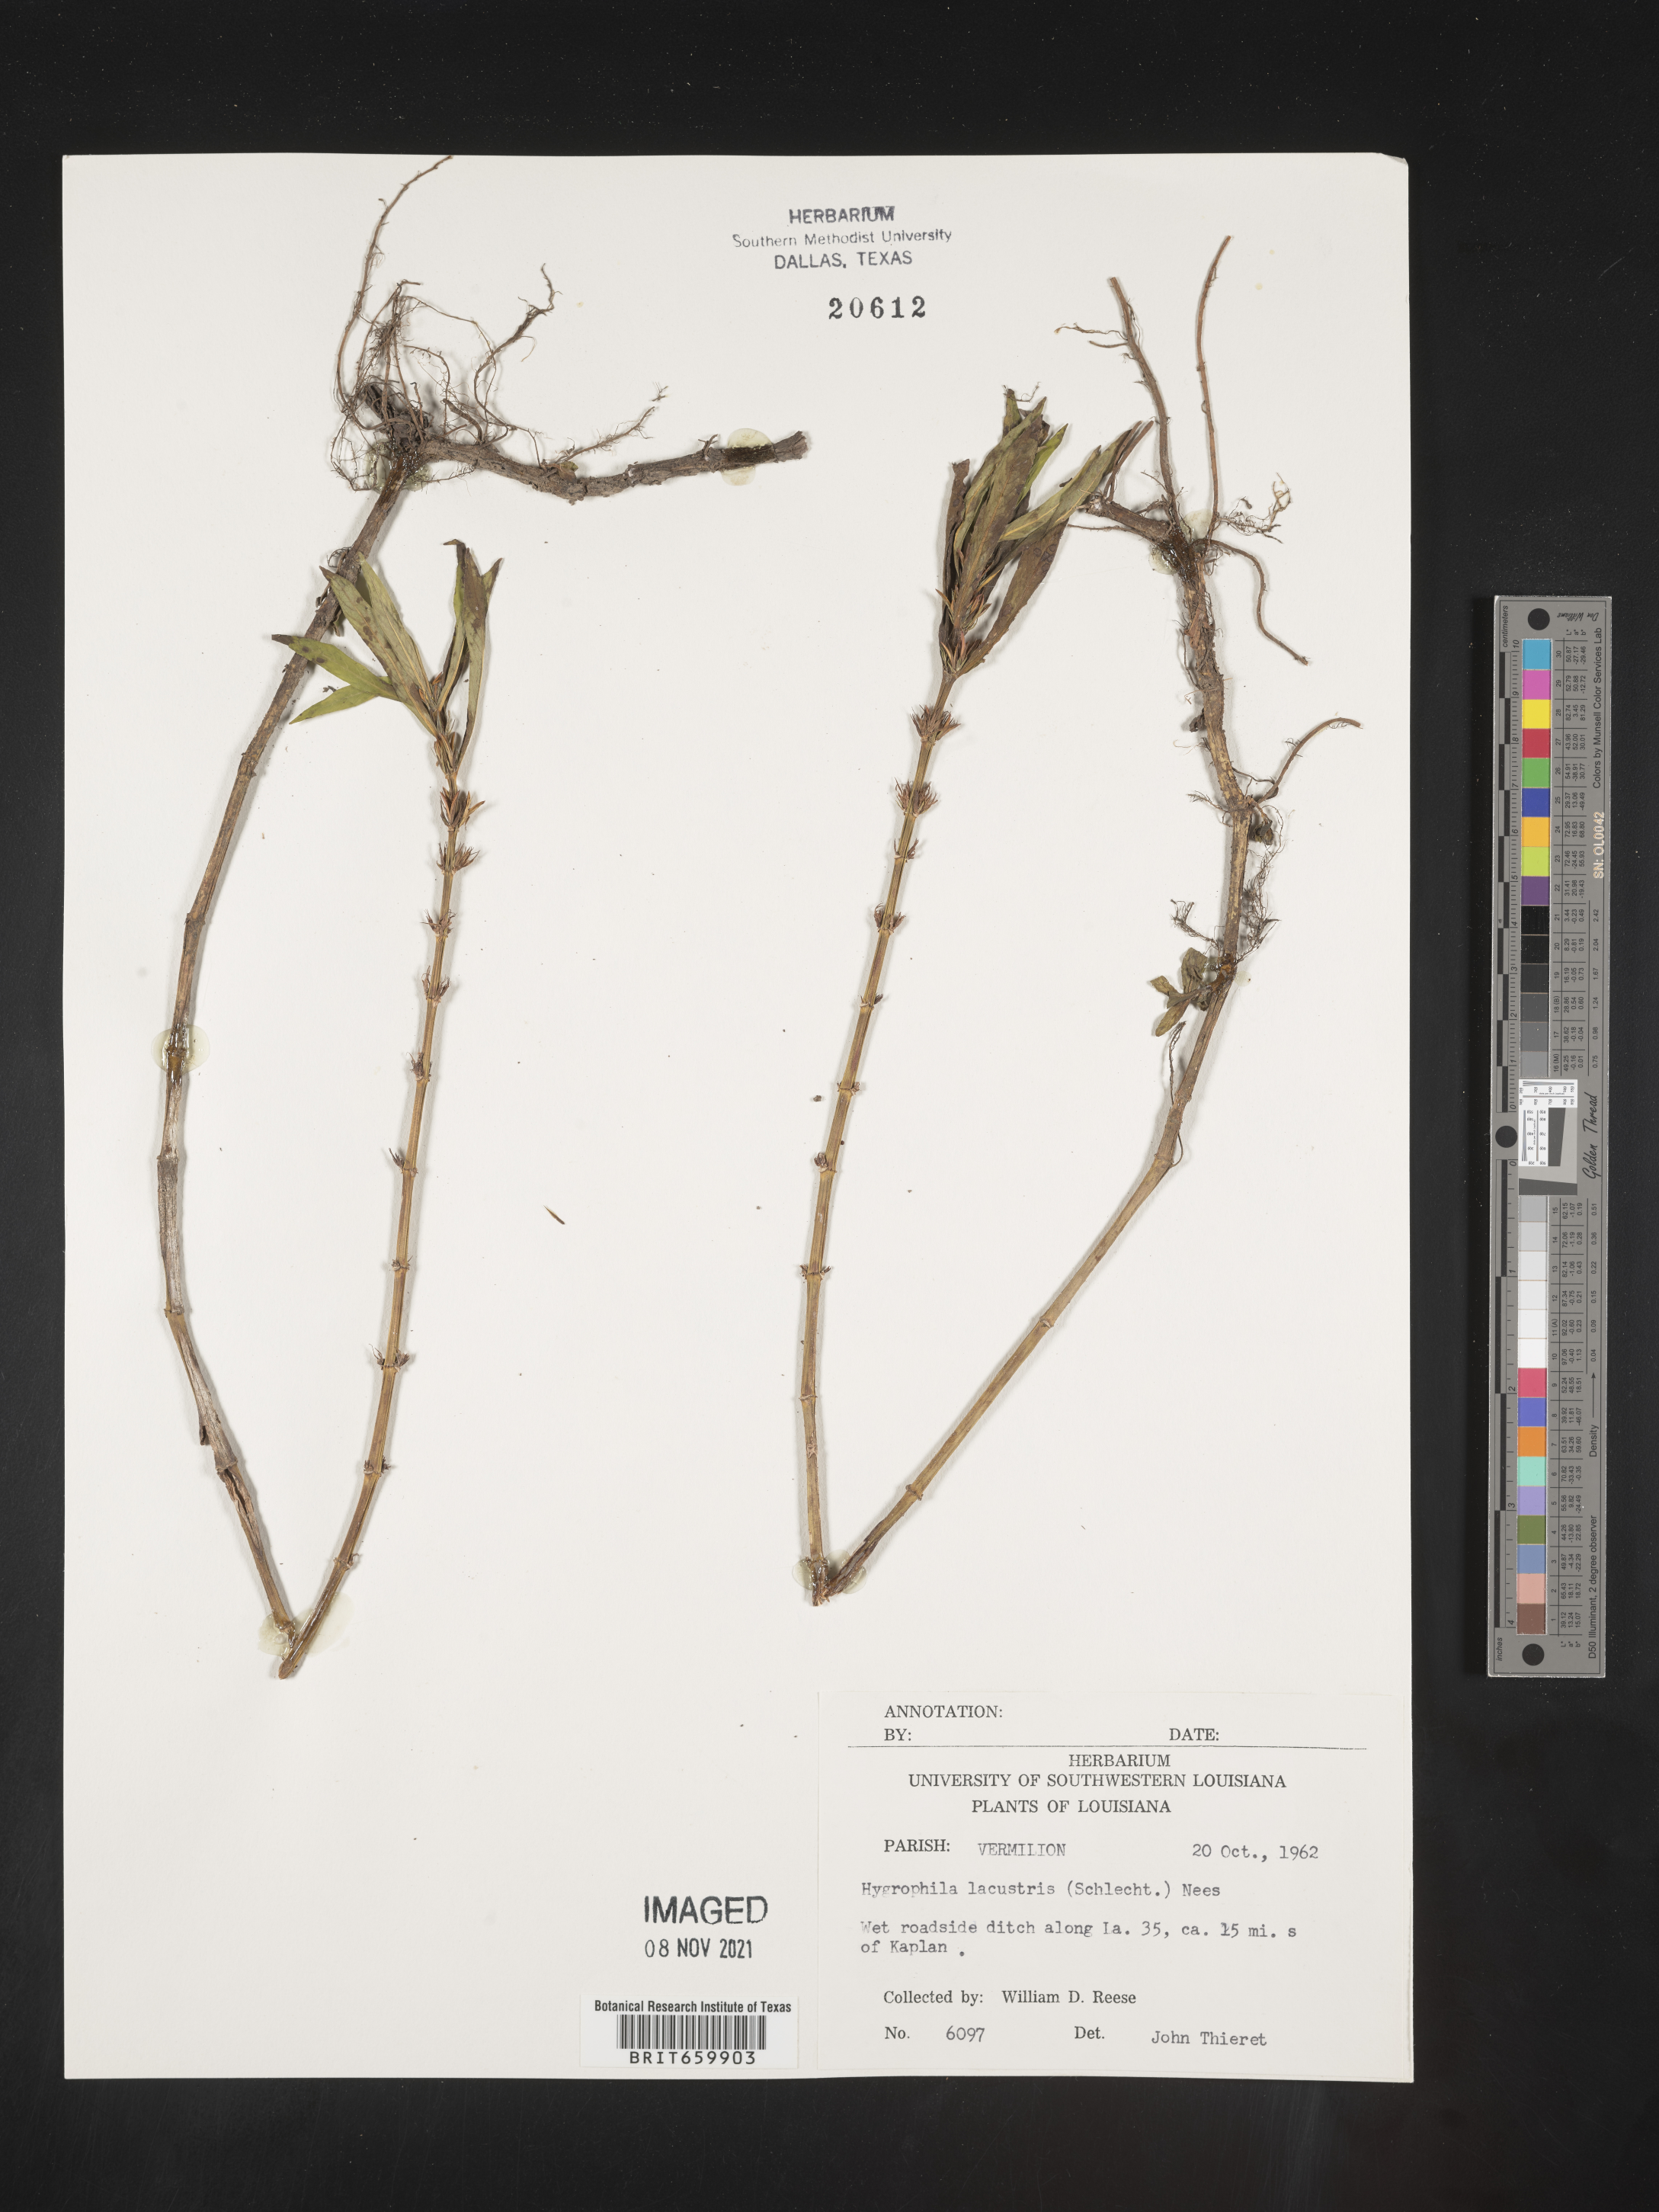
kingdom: Plantae
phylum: Tracheophyta
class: Magnoliopsida
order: Lamiales
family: Acanthaceae
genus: Hygrophila
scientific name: Hygrophila costata
